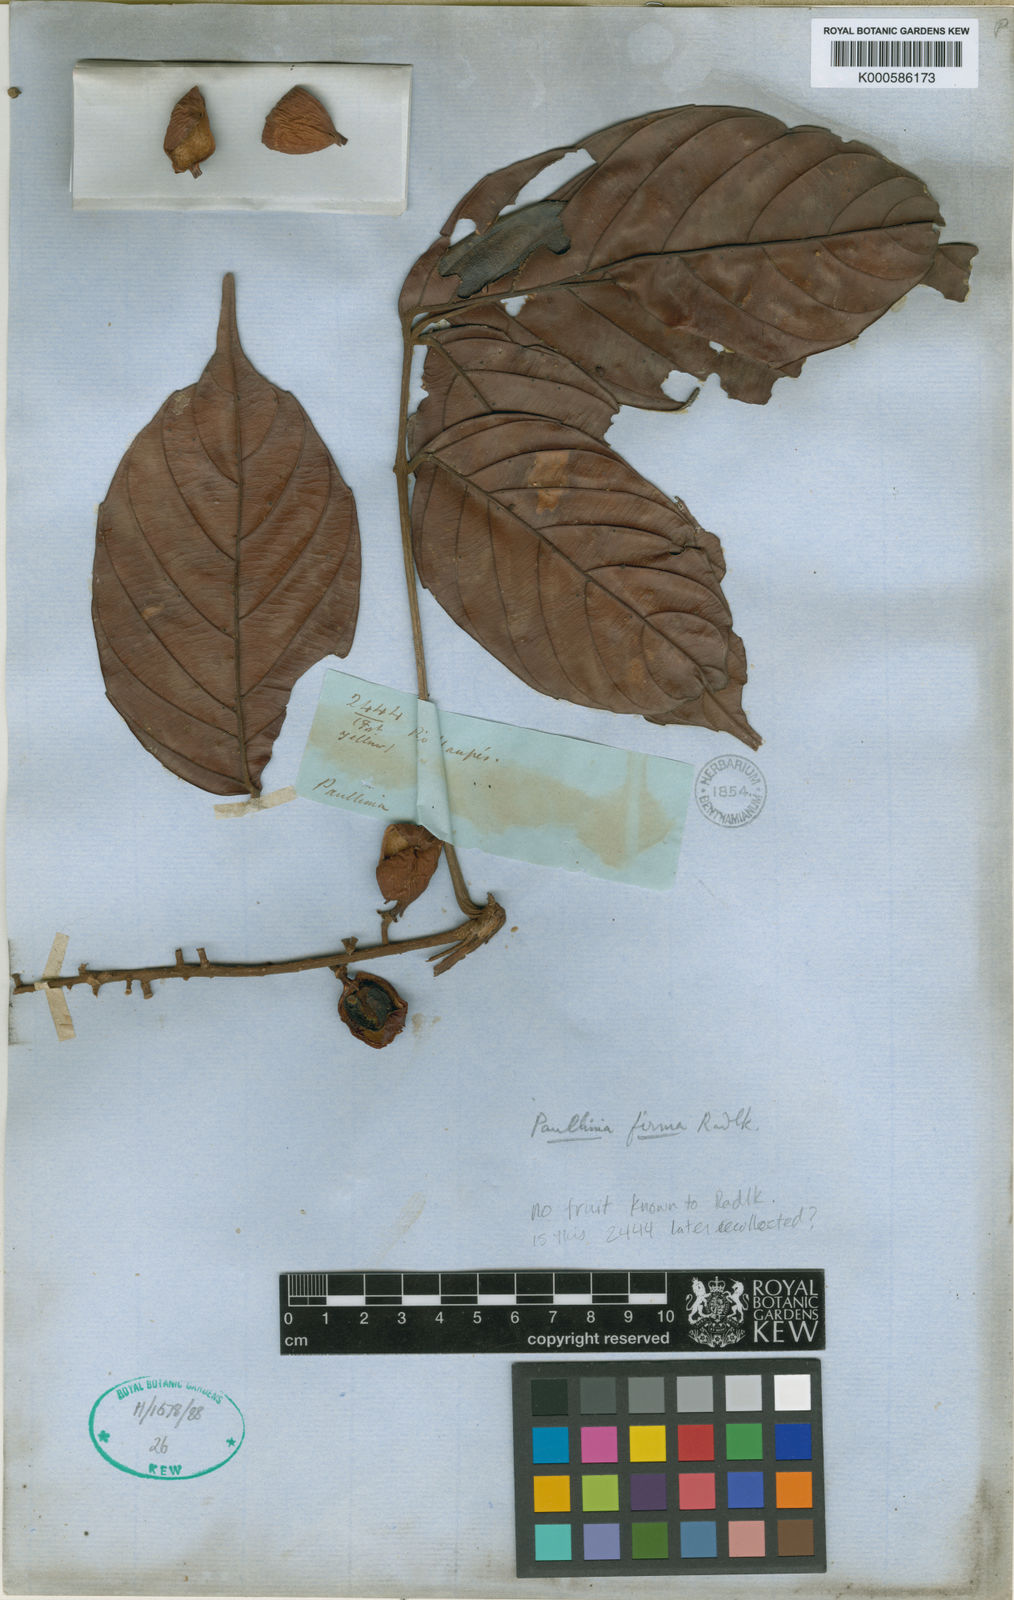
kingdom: Plantae
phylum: Tracheophyta
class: Magnoliopsida
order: Sapindales
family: Sapindaceae
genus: Paullinia
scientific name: Paullinia firma
